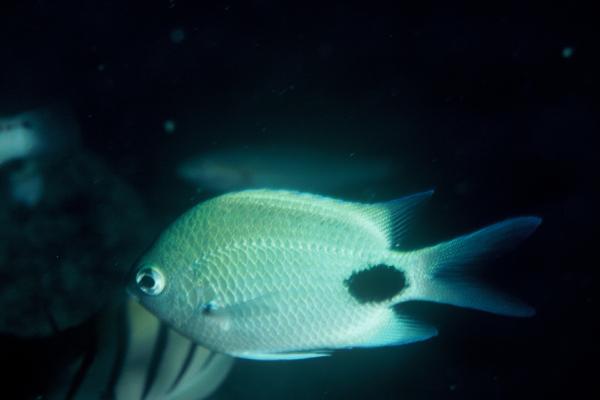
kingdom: Animalia
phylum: Chordata
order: Perciformes
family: Pomacentridae
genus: Abudefduf
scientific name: Abudefduf sparoides
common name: False-eye sergeant
